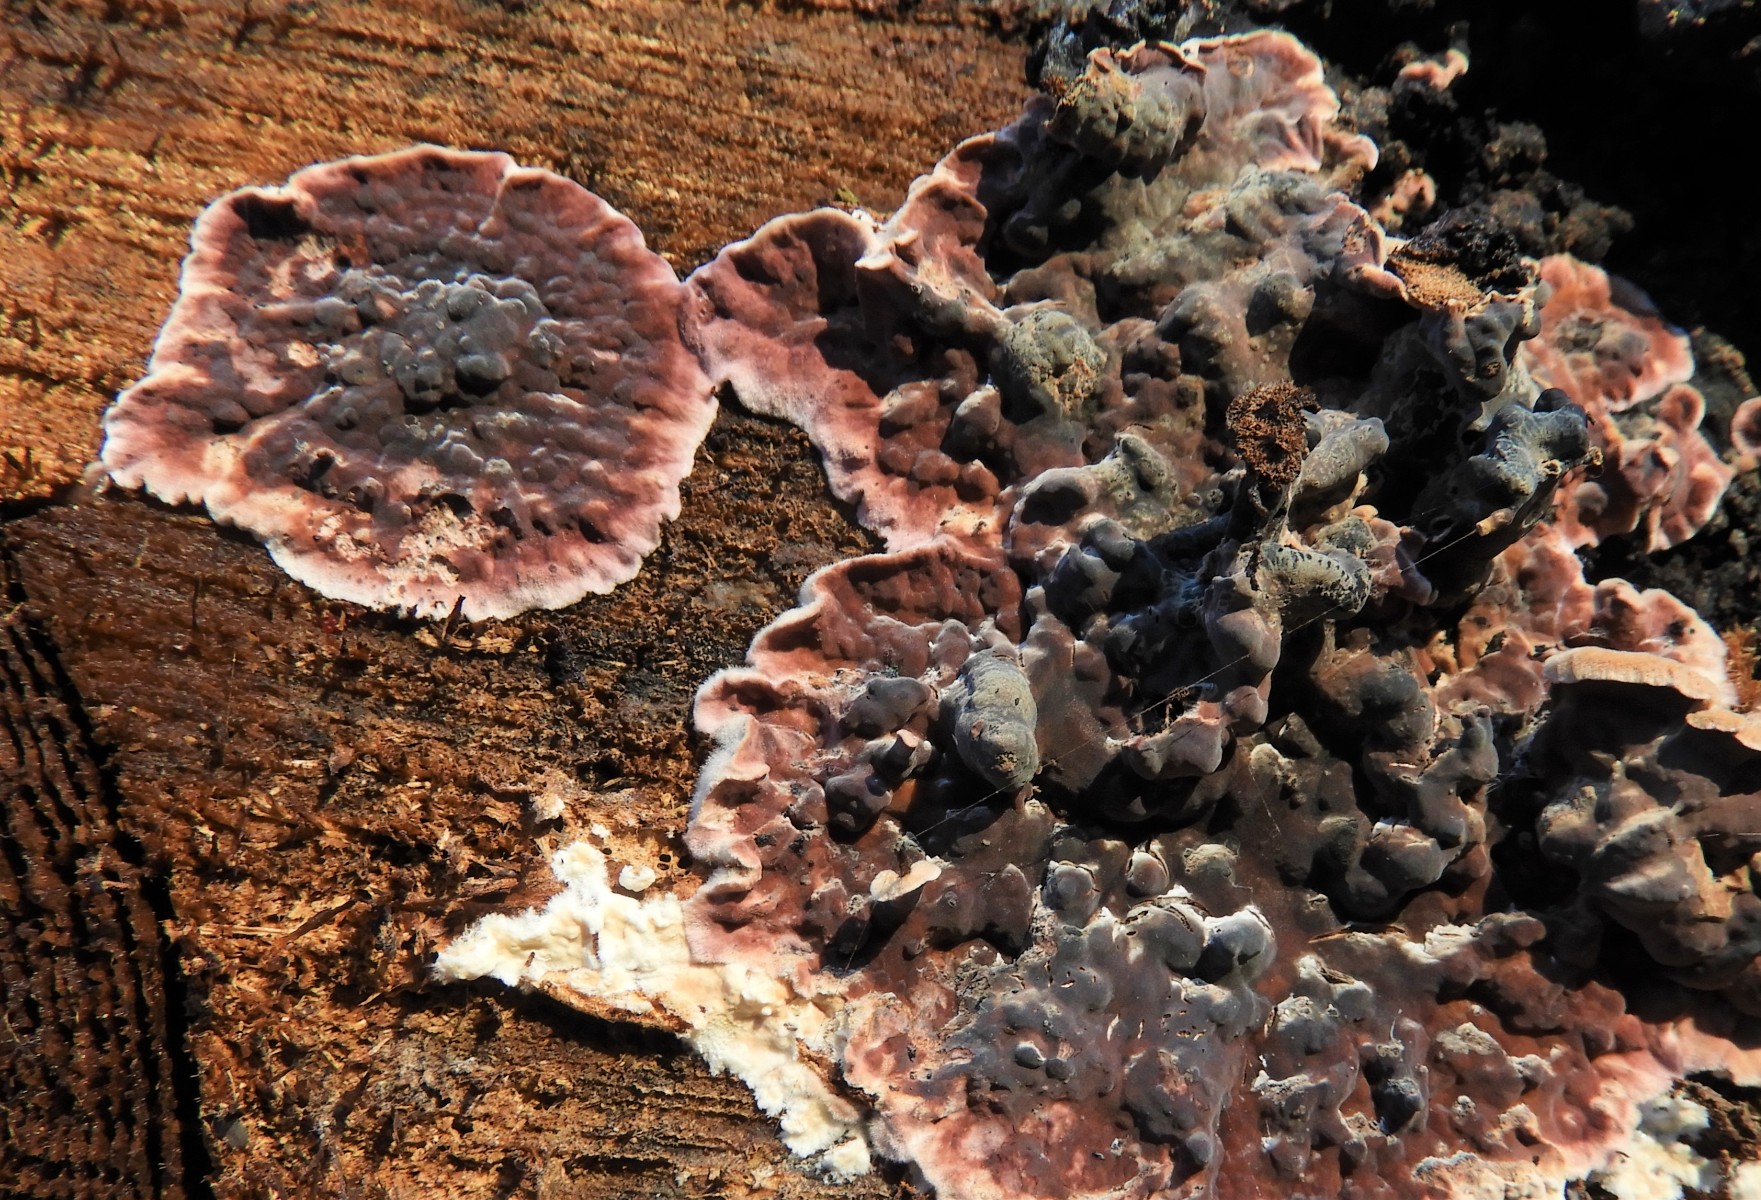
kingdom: Fungi
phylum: Basidiomycota
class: Agaricomycetes
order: Agaricales
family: Cyphellaceae
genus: Chondrostereum
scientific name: Chondrostereum purpureum
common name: purpurlædersvamp
